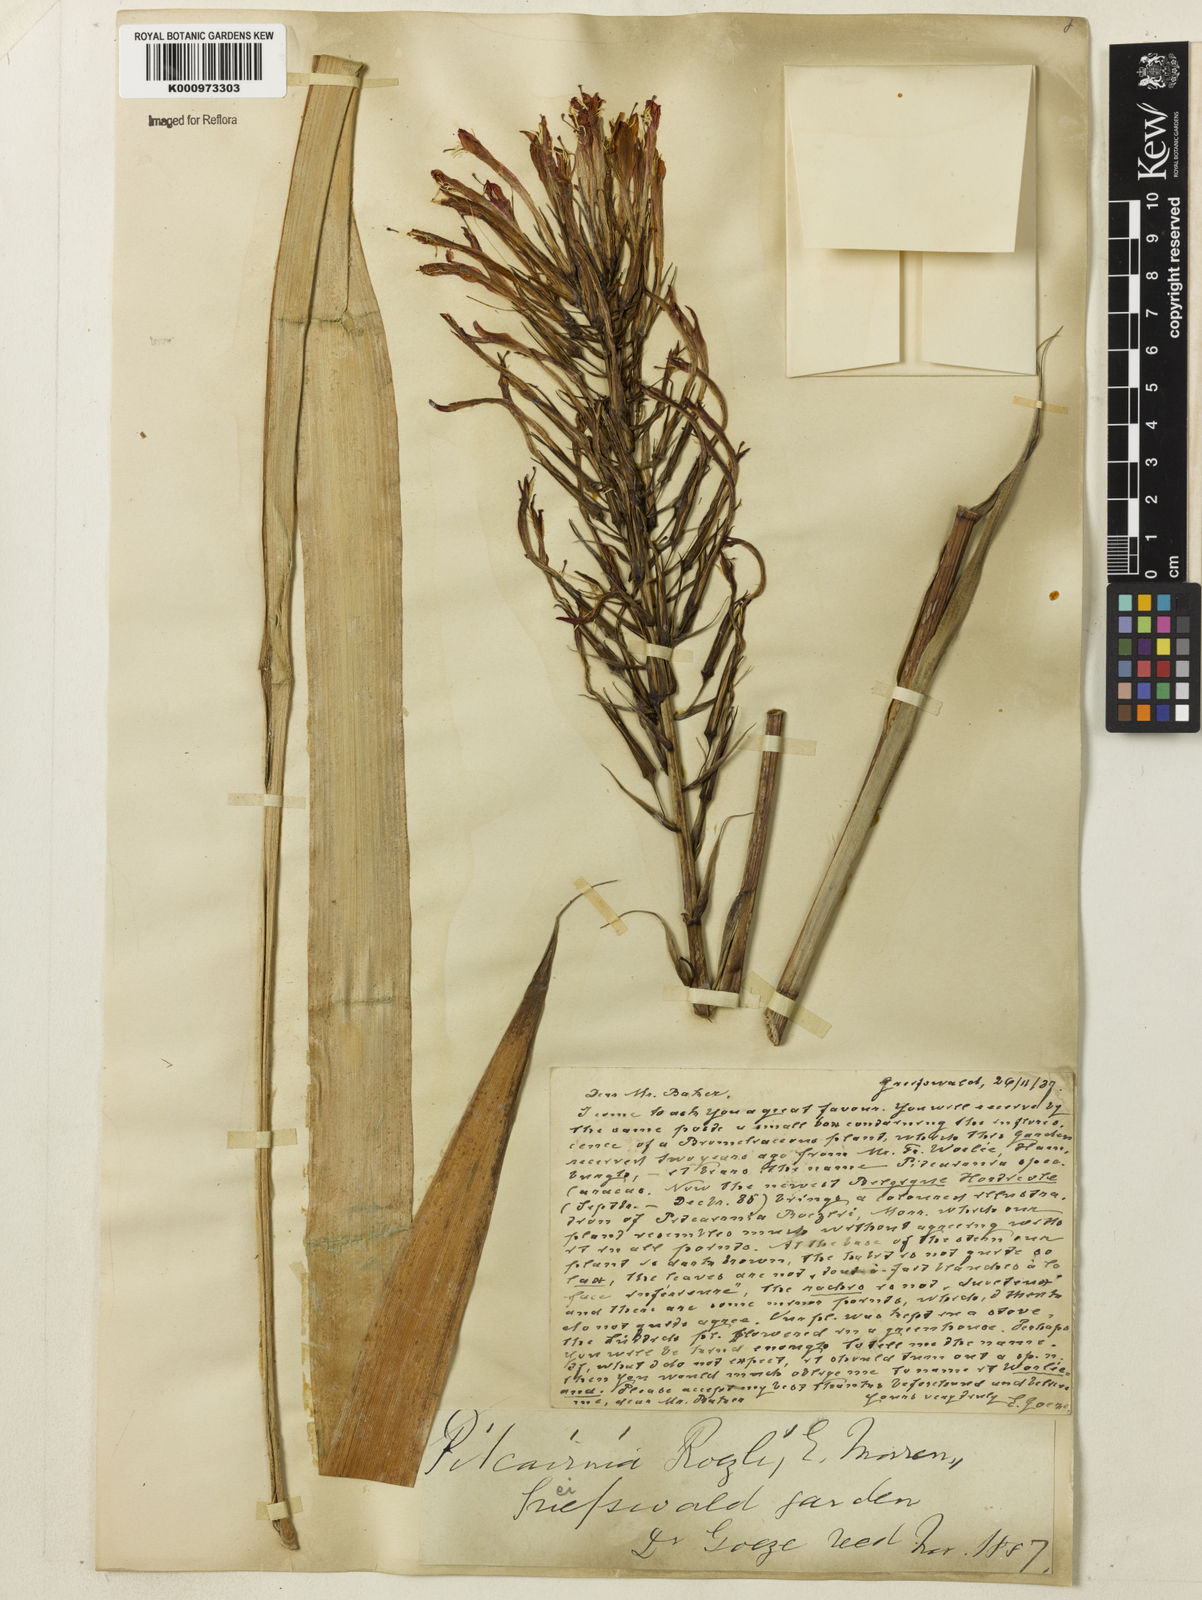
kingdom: Plantae
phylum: Tracheophyta
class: Liliopsida
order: Poales
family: Bromeliaceae
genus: Pitcairnia
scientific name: Pitcairnia flammea
